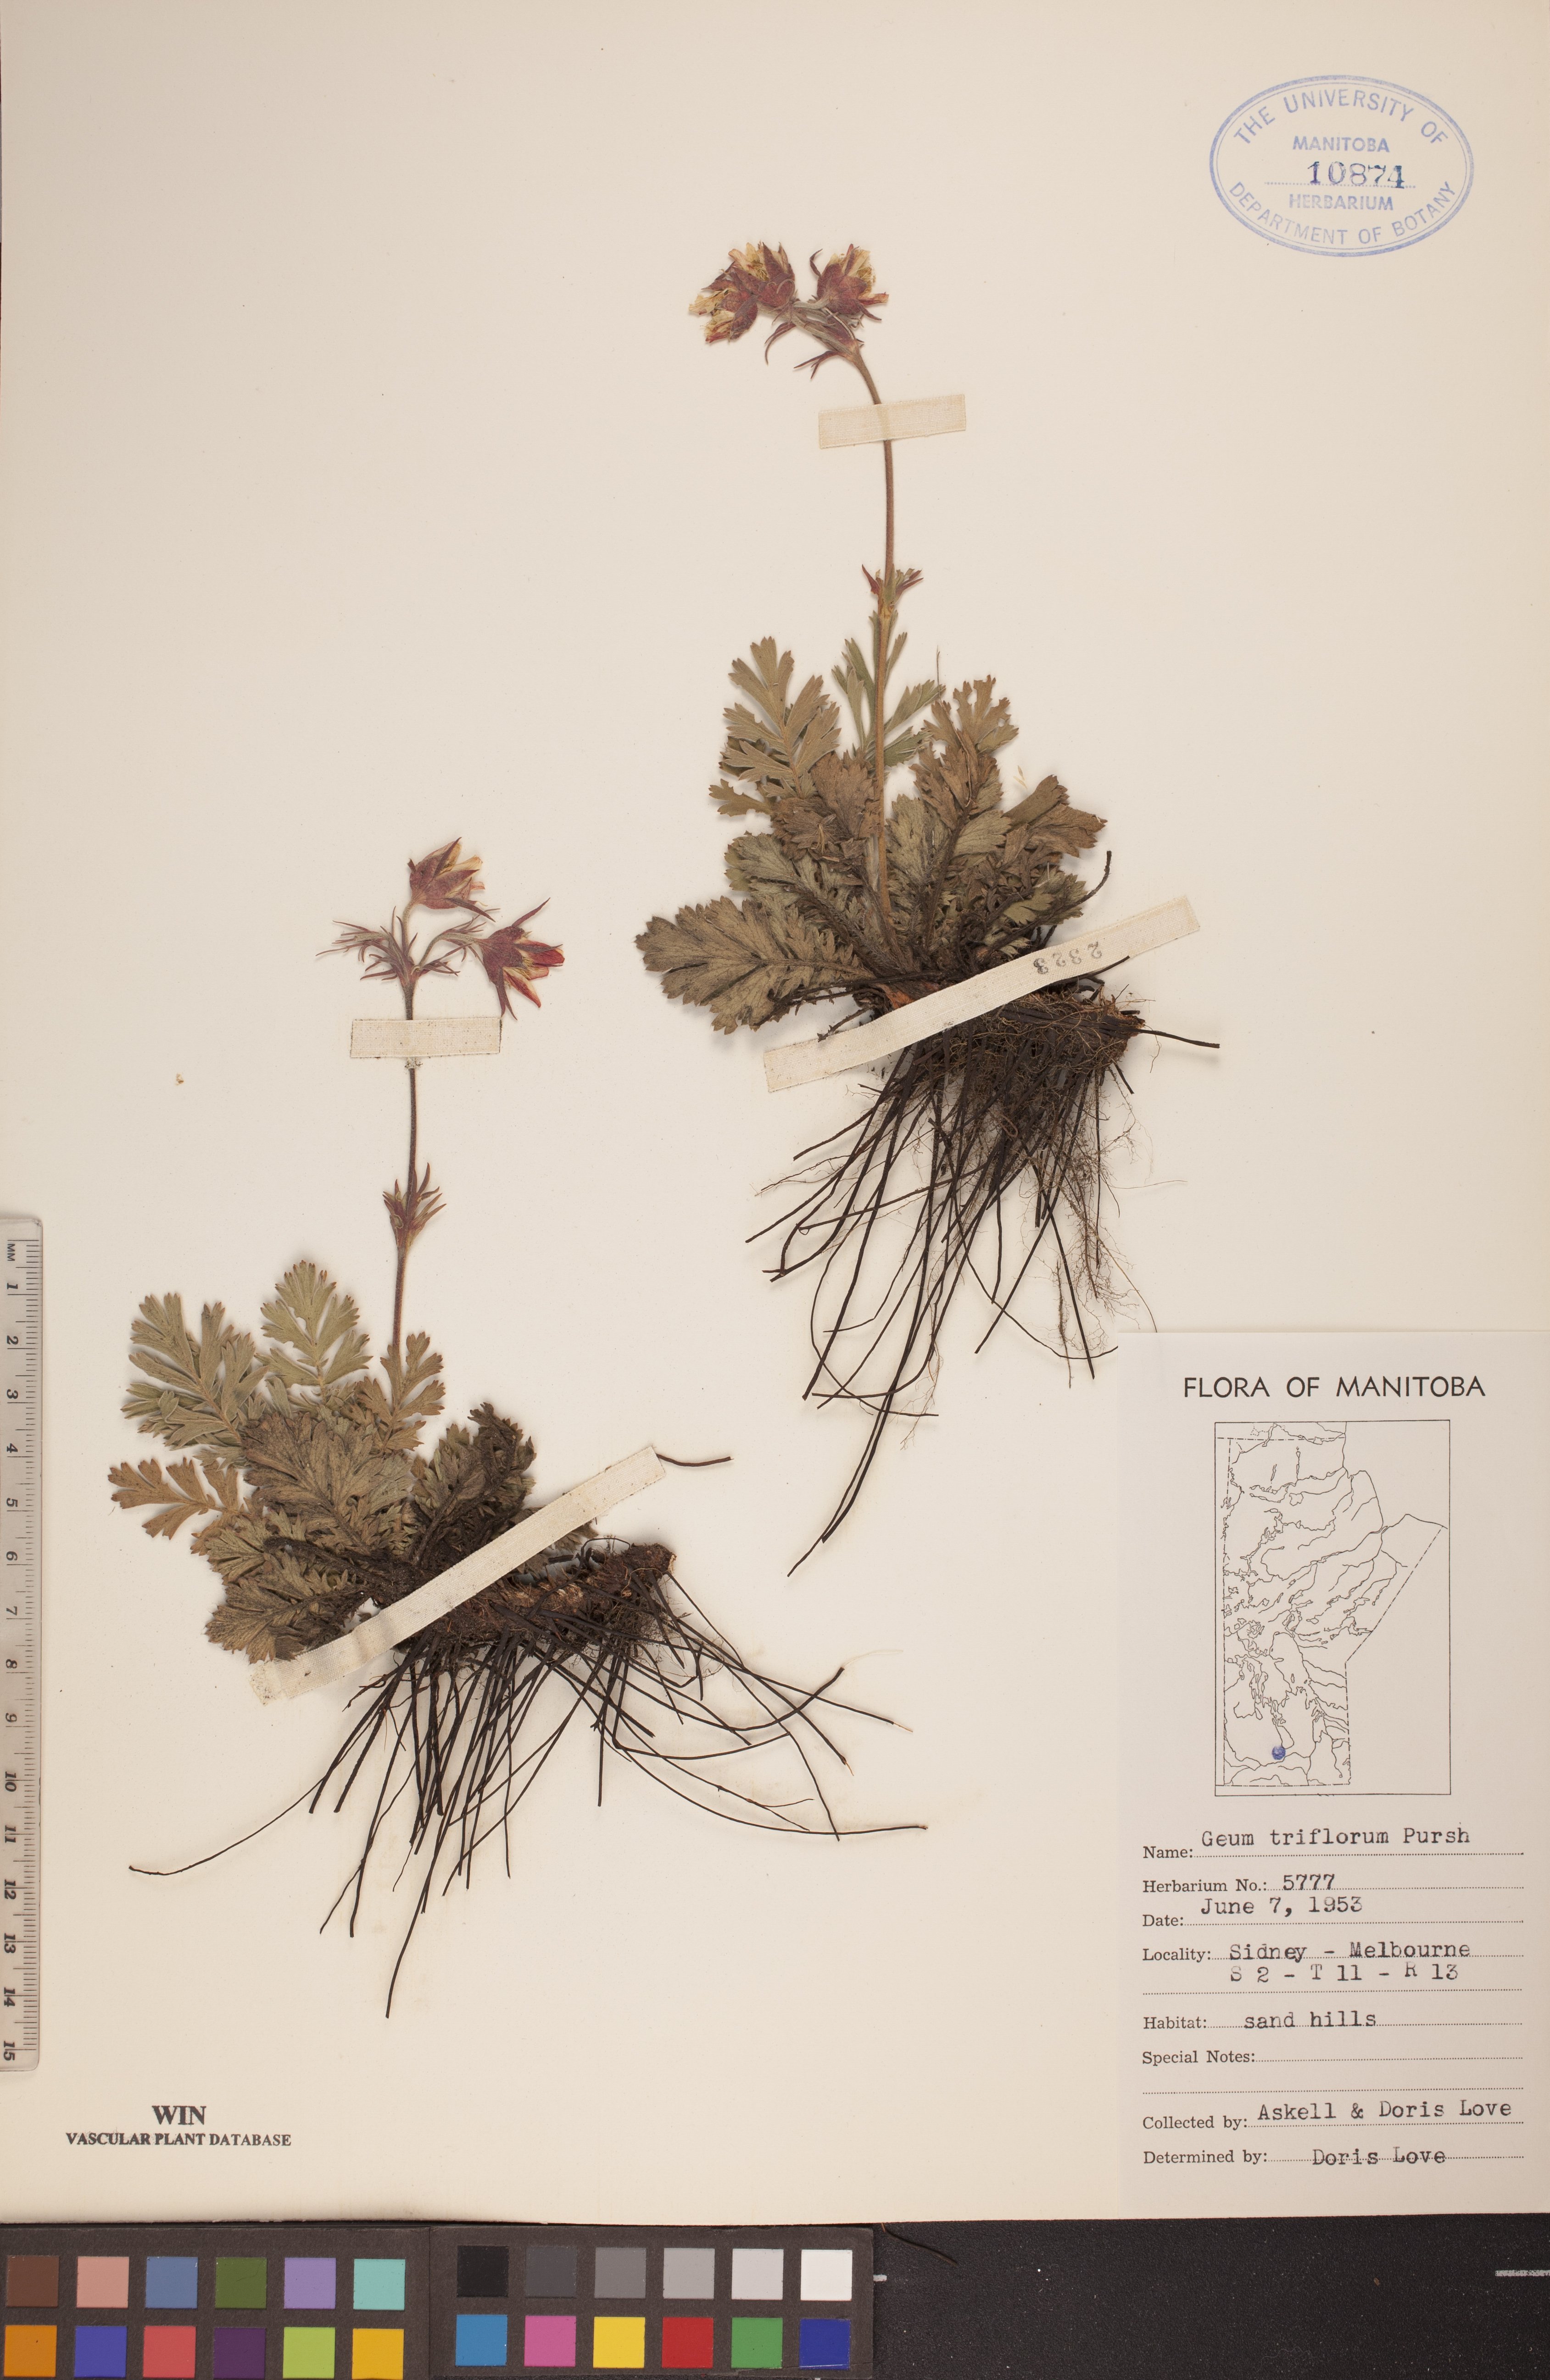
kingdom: Plantae
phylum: Tracheophyta
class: Magnoliopsida
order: Rosales
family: Rosaceae
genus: Geum
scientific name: Geum triflorum
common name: Old man's whiskers
